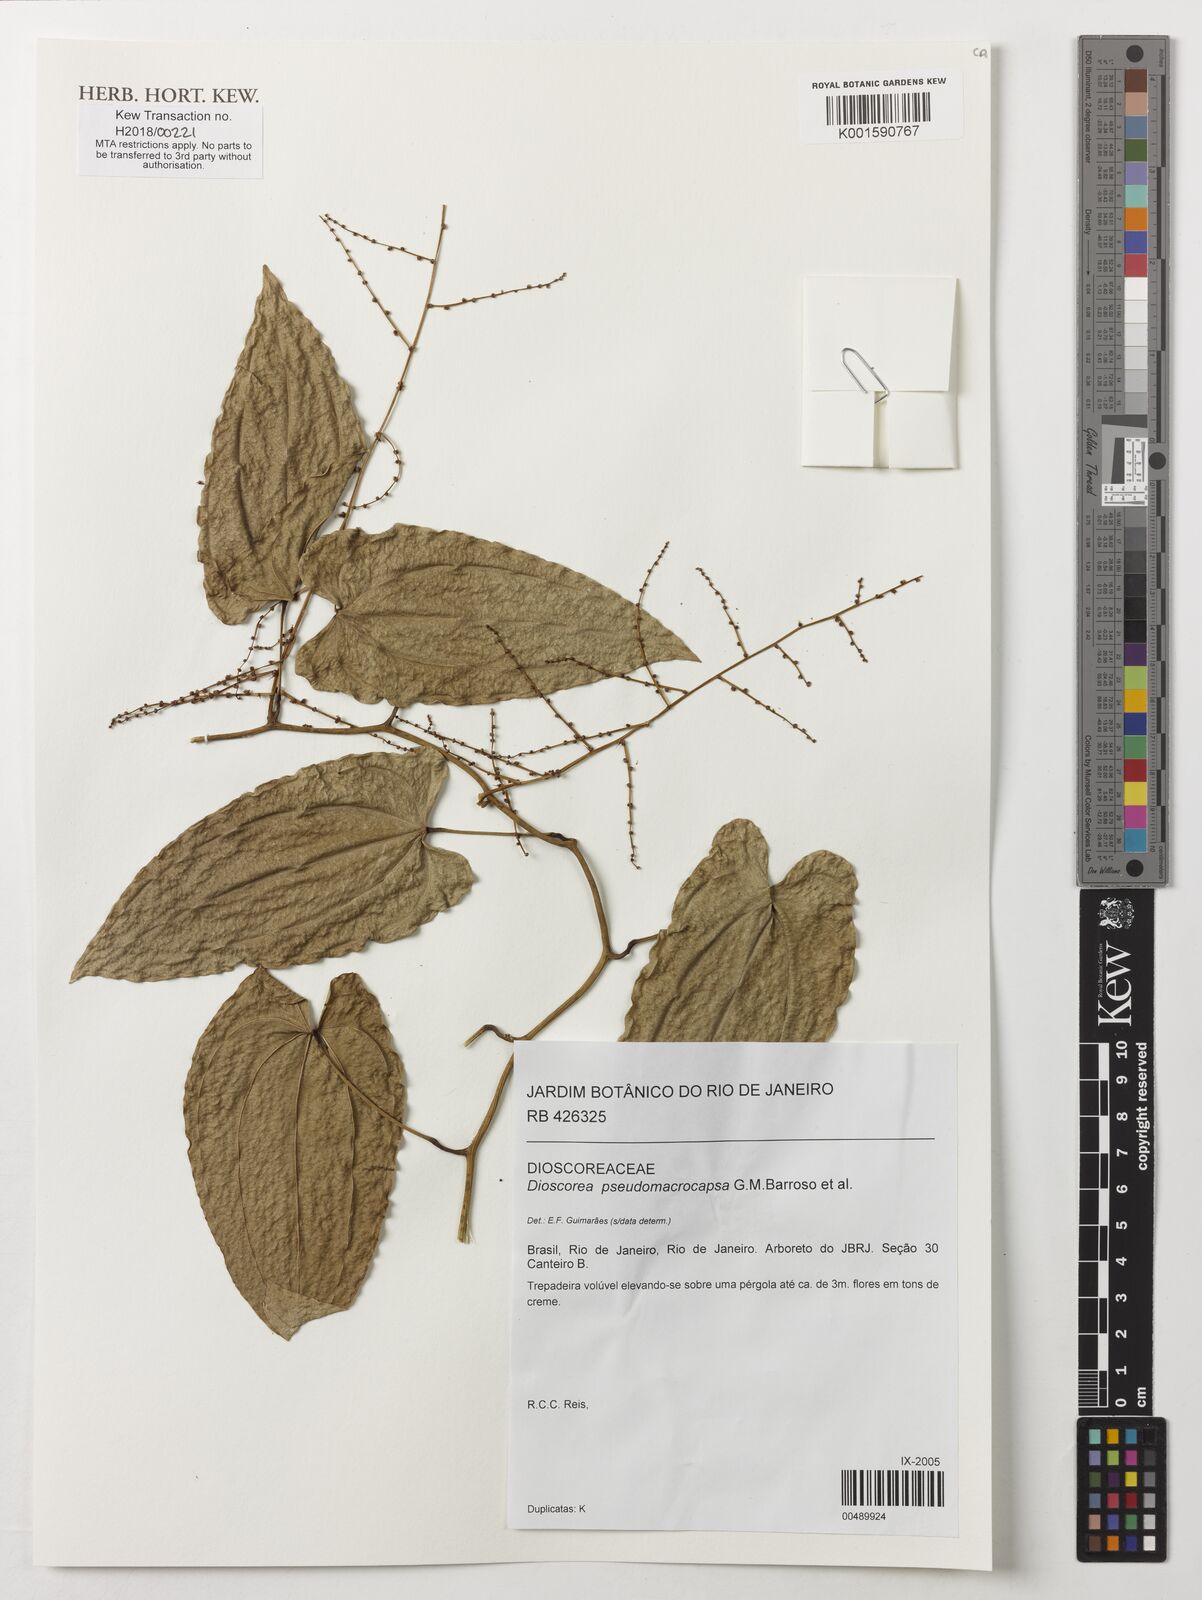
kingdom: Plantae
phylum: Tracheophyta
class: Liliopsida
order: Dioscoreales
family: Dioscoreaceae
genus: Dioscorea
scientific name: Dioscorea pseudomacrocapsa
